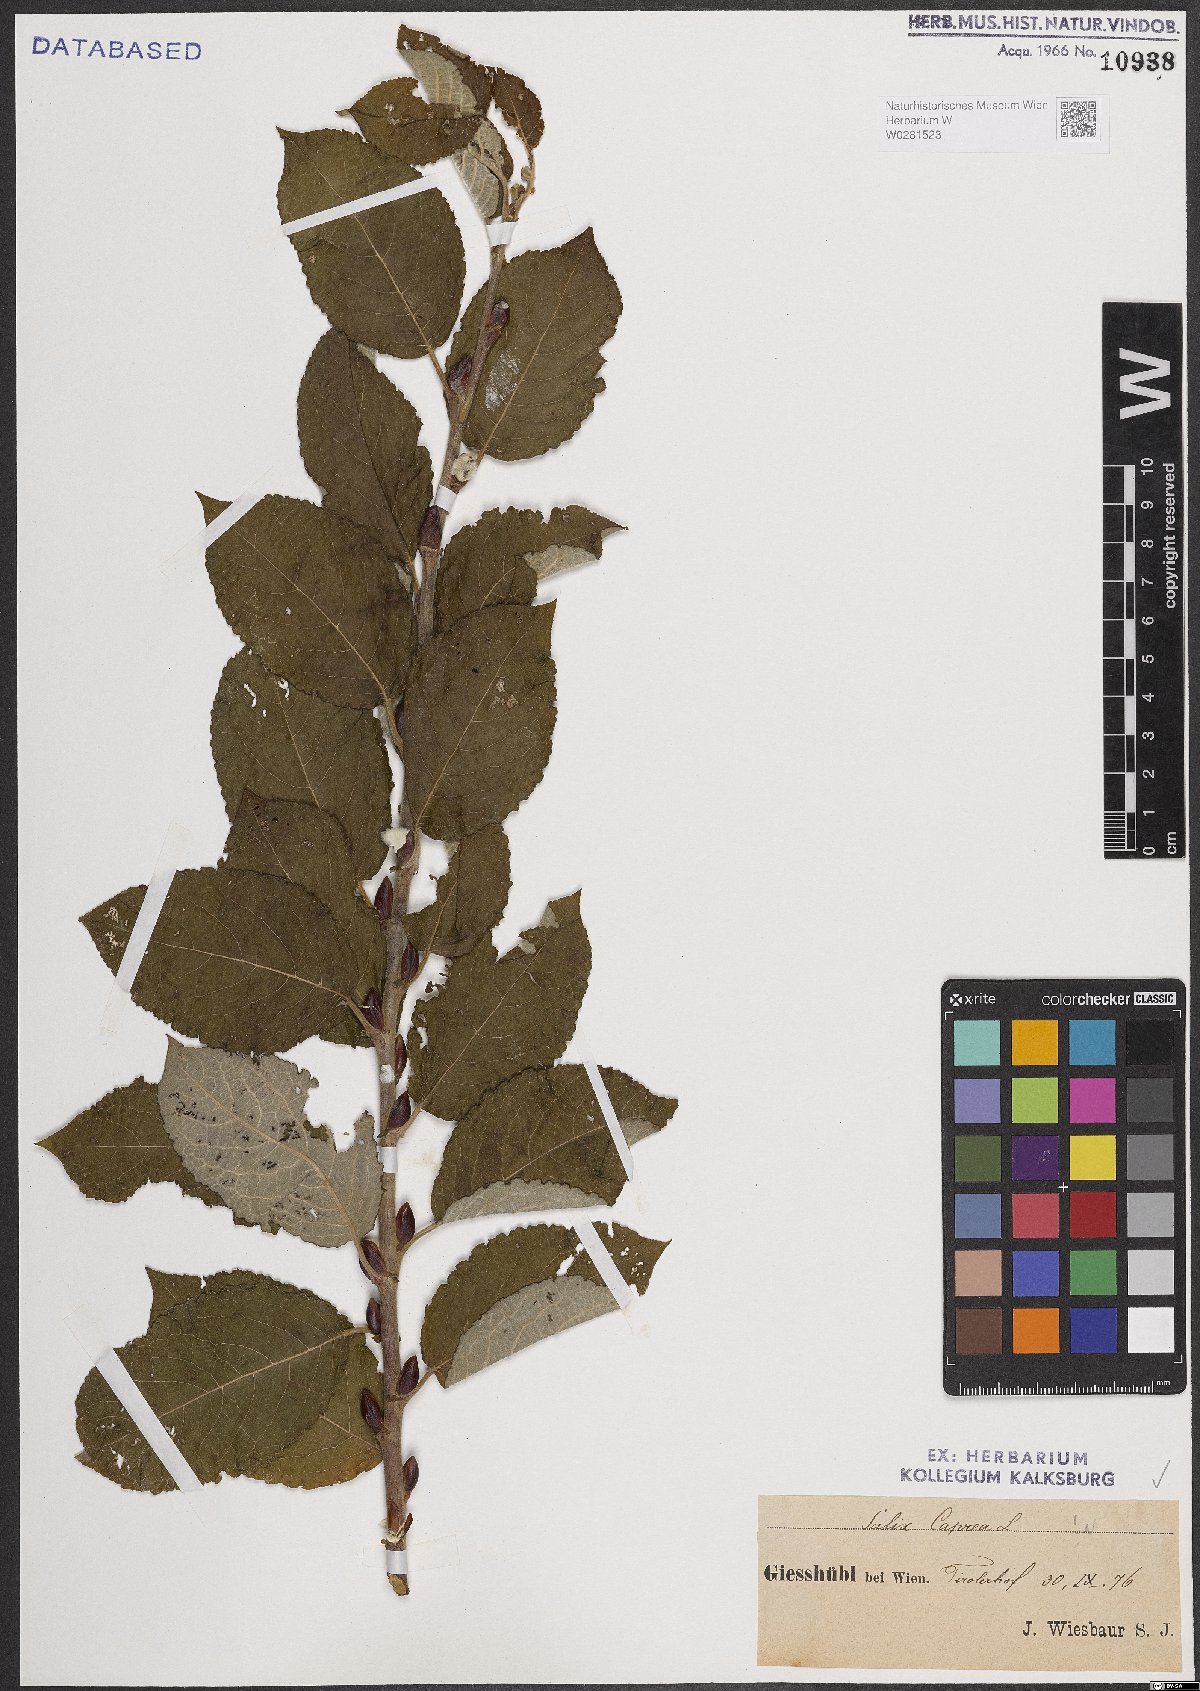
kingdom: Plantae
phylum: Tracheophyta
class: Magnoliopsida
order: Malpighiales
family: Salicaceae
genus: Salix
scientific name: Salix caprea
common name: Goat willow
